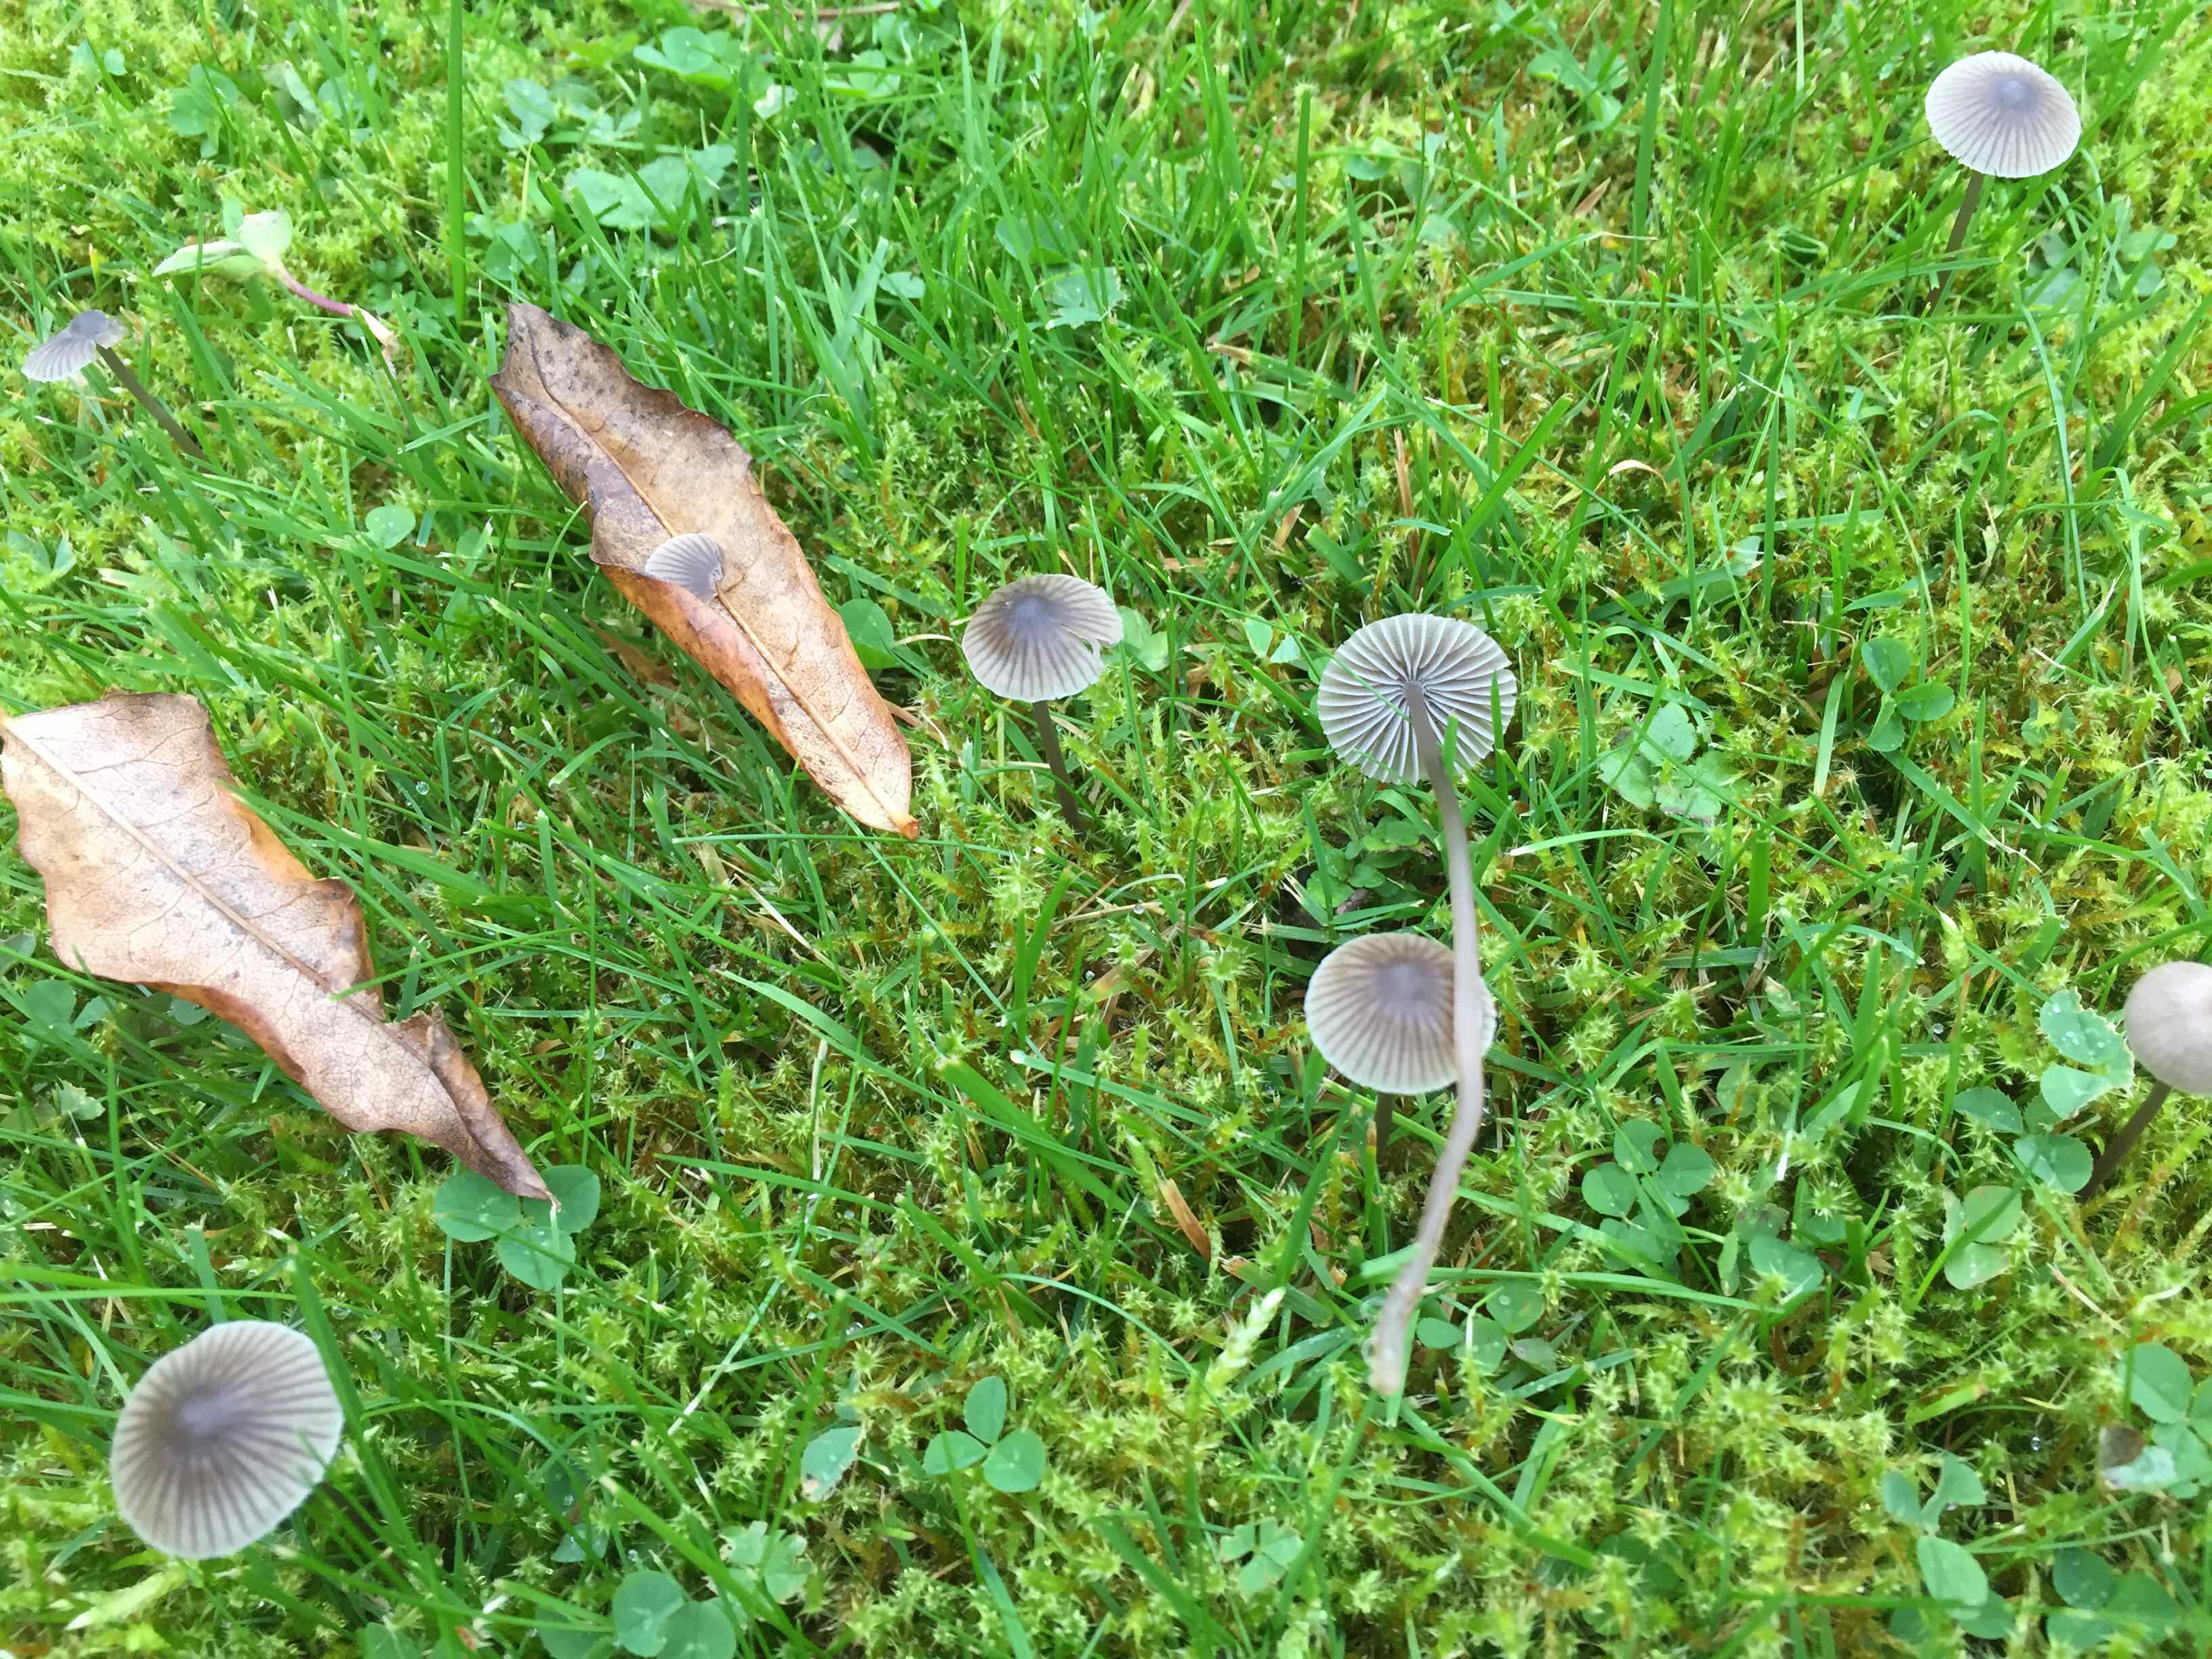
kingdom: Fungi
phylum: Basidiomycota
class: Agaricomycetes
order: Agaricales
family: Mycenaceae
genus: Mycena
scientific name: Mycena aetites
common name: plæne-huesvamp
